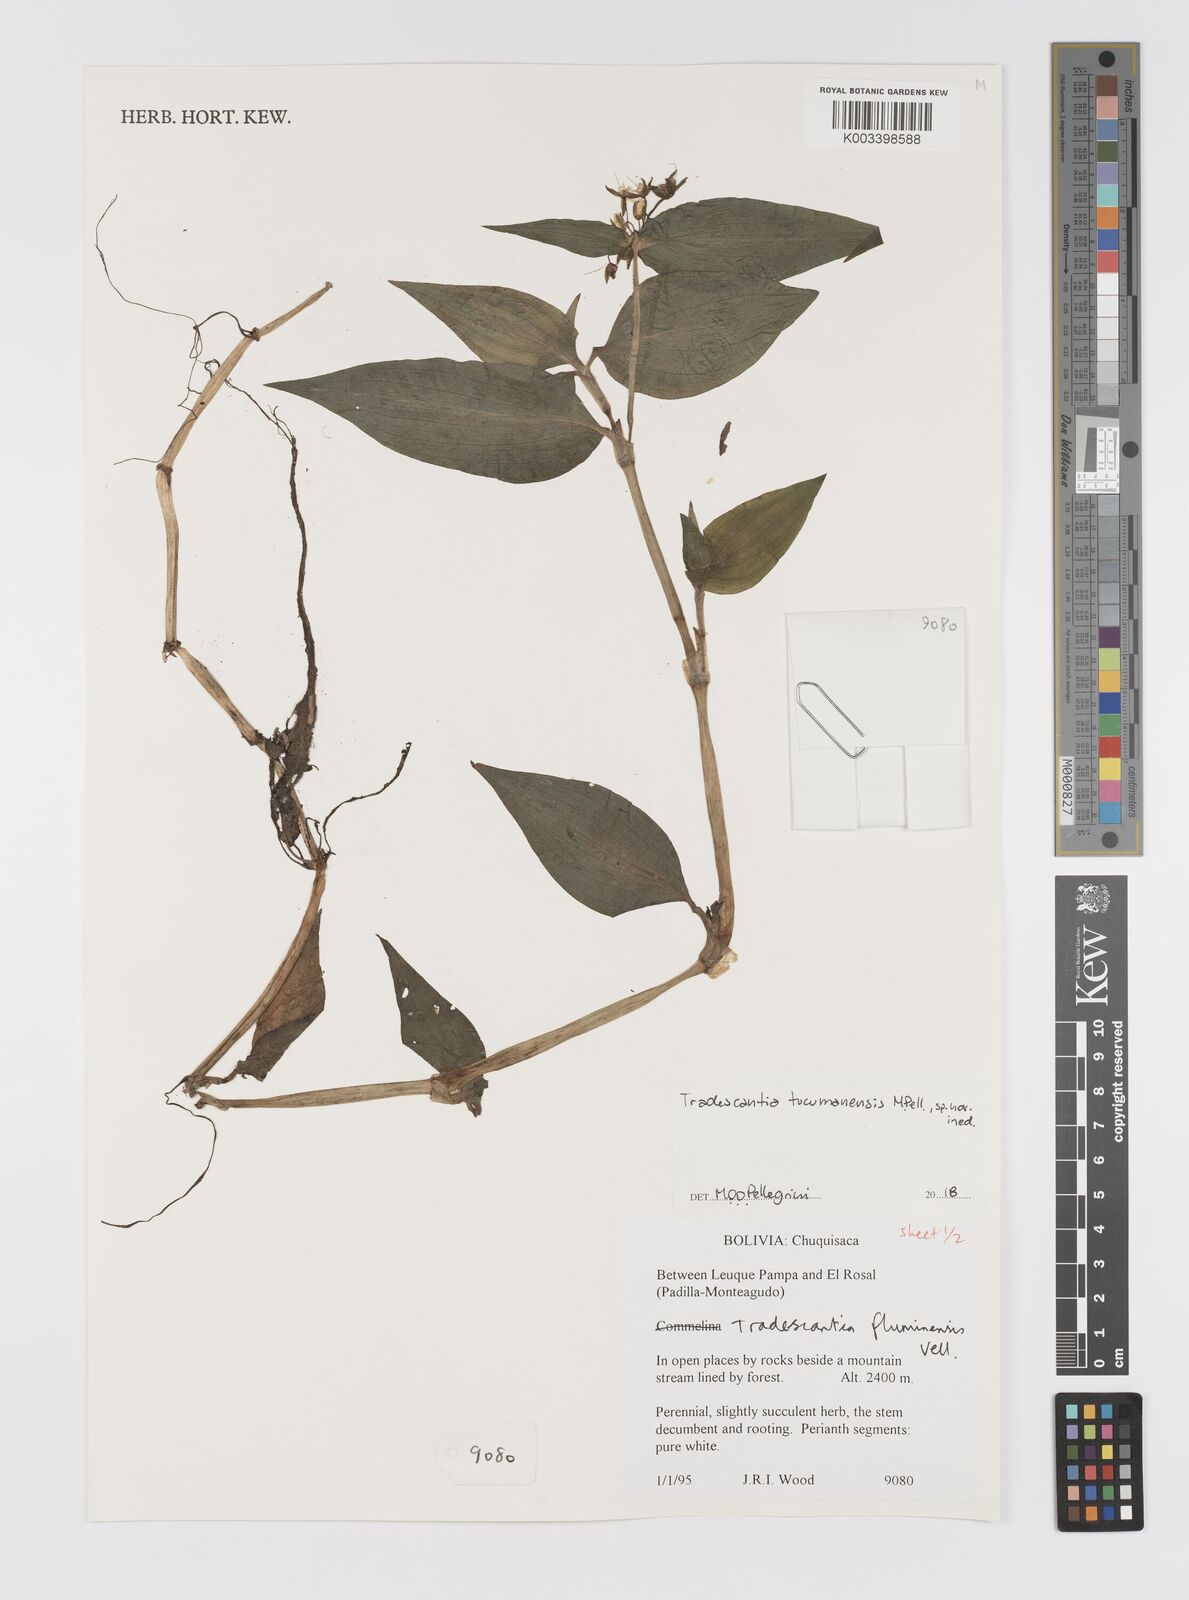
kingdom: Plantae
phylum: Tracheophyta
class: Liliopsida
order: Commelinales
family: Commelinaceae
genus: Tradescantia
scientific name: Tradescantia tucumanensis
